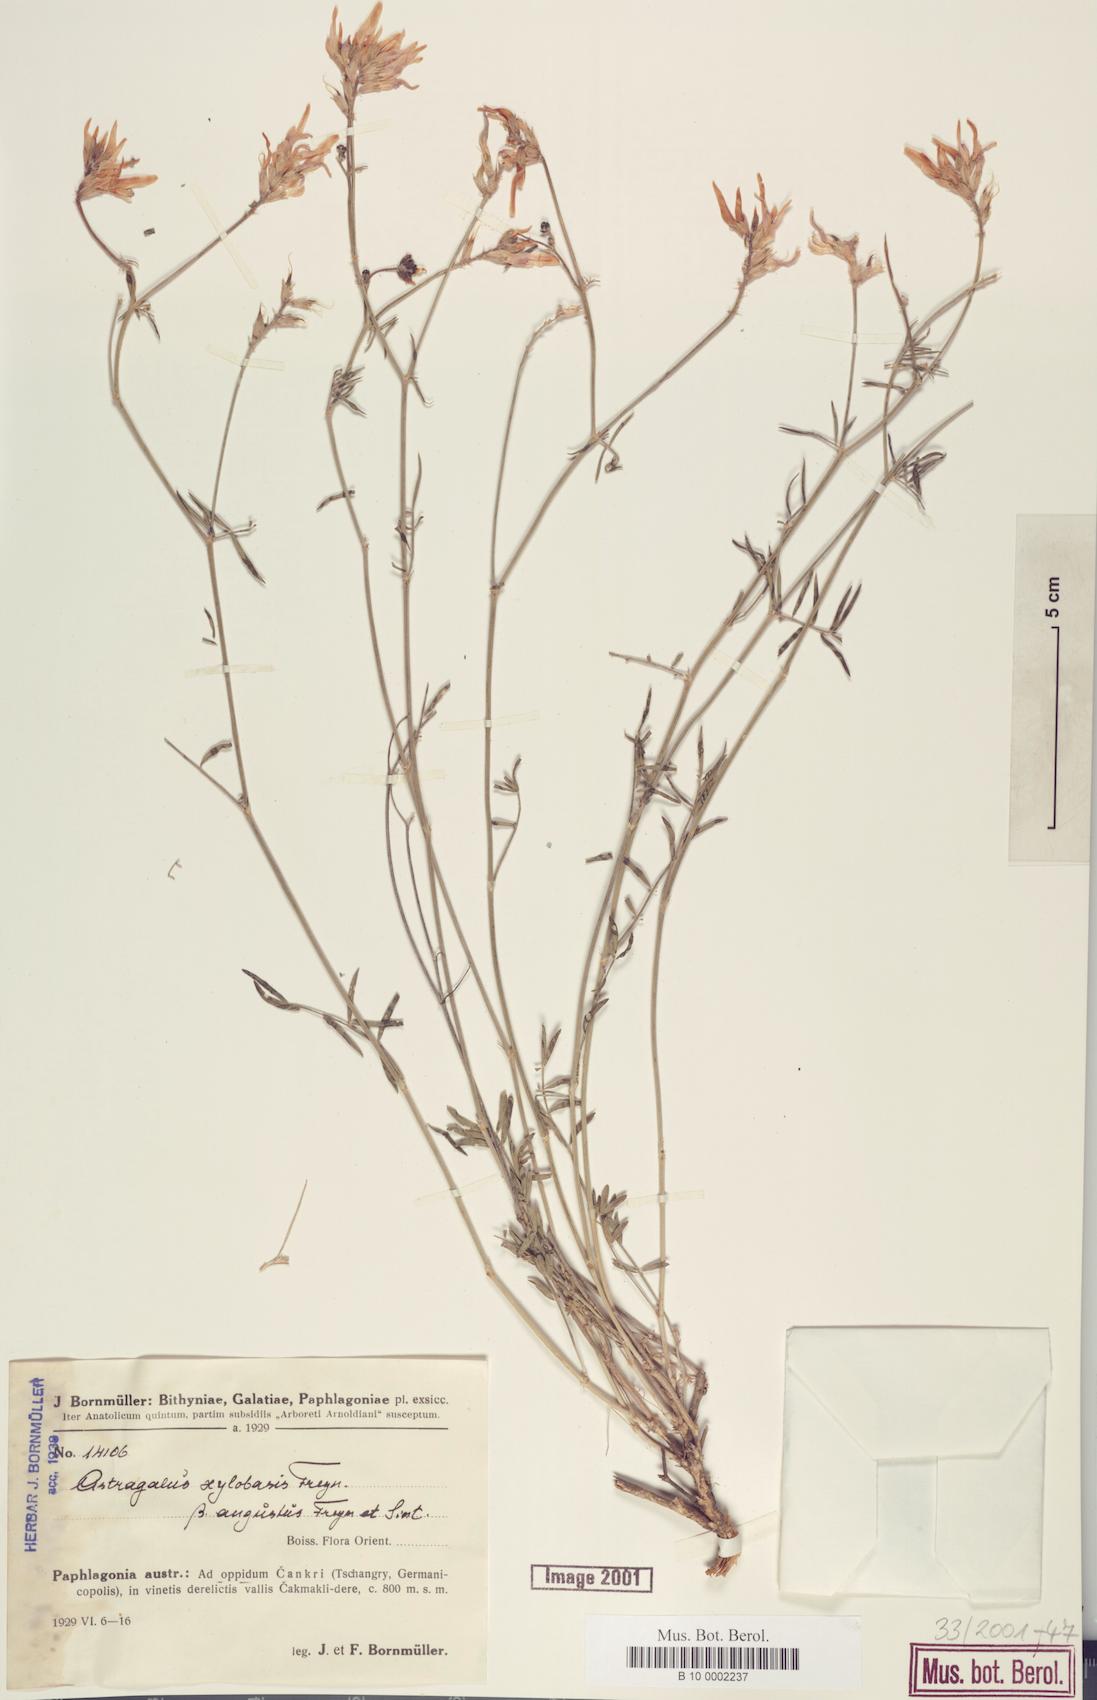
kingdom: Plantae
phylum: Tracheophyta
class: Magnoliopsida
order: Fabales
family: Fabaceae
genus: Astragalus
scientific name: Astragalus aduncus
